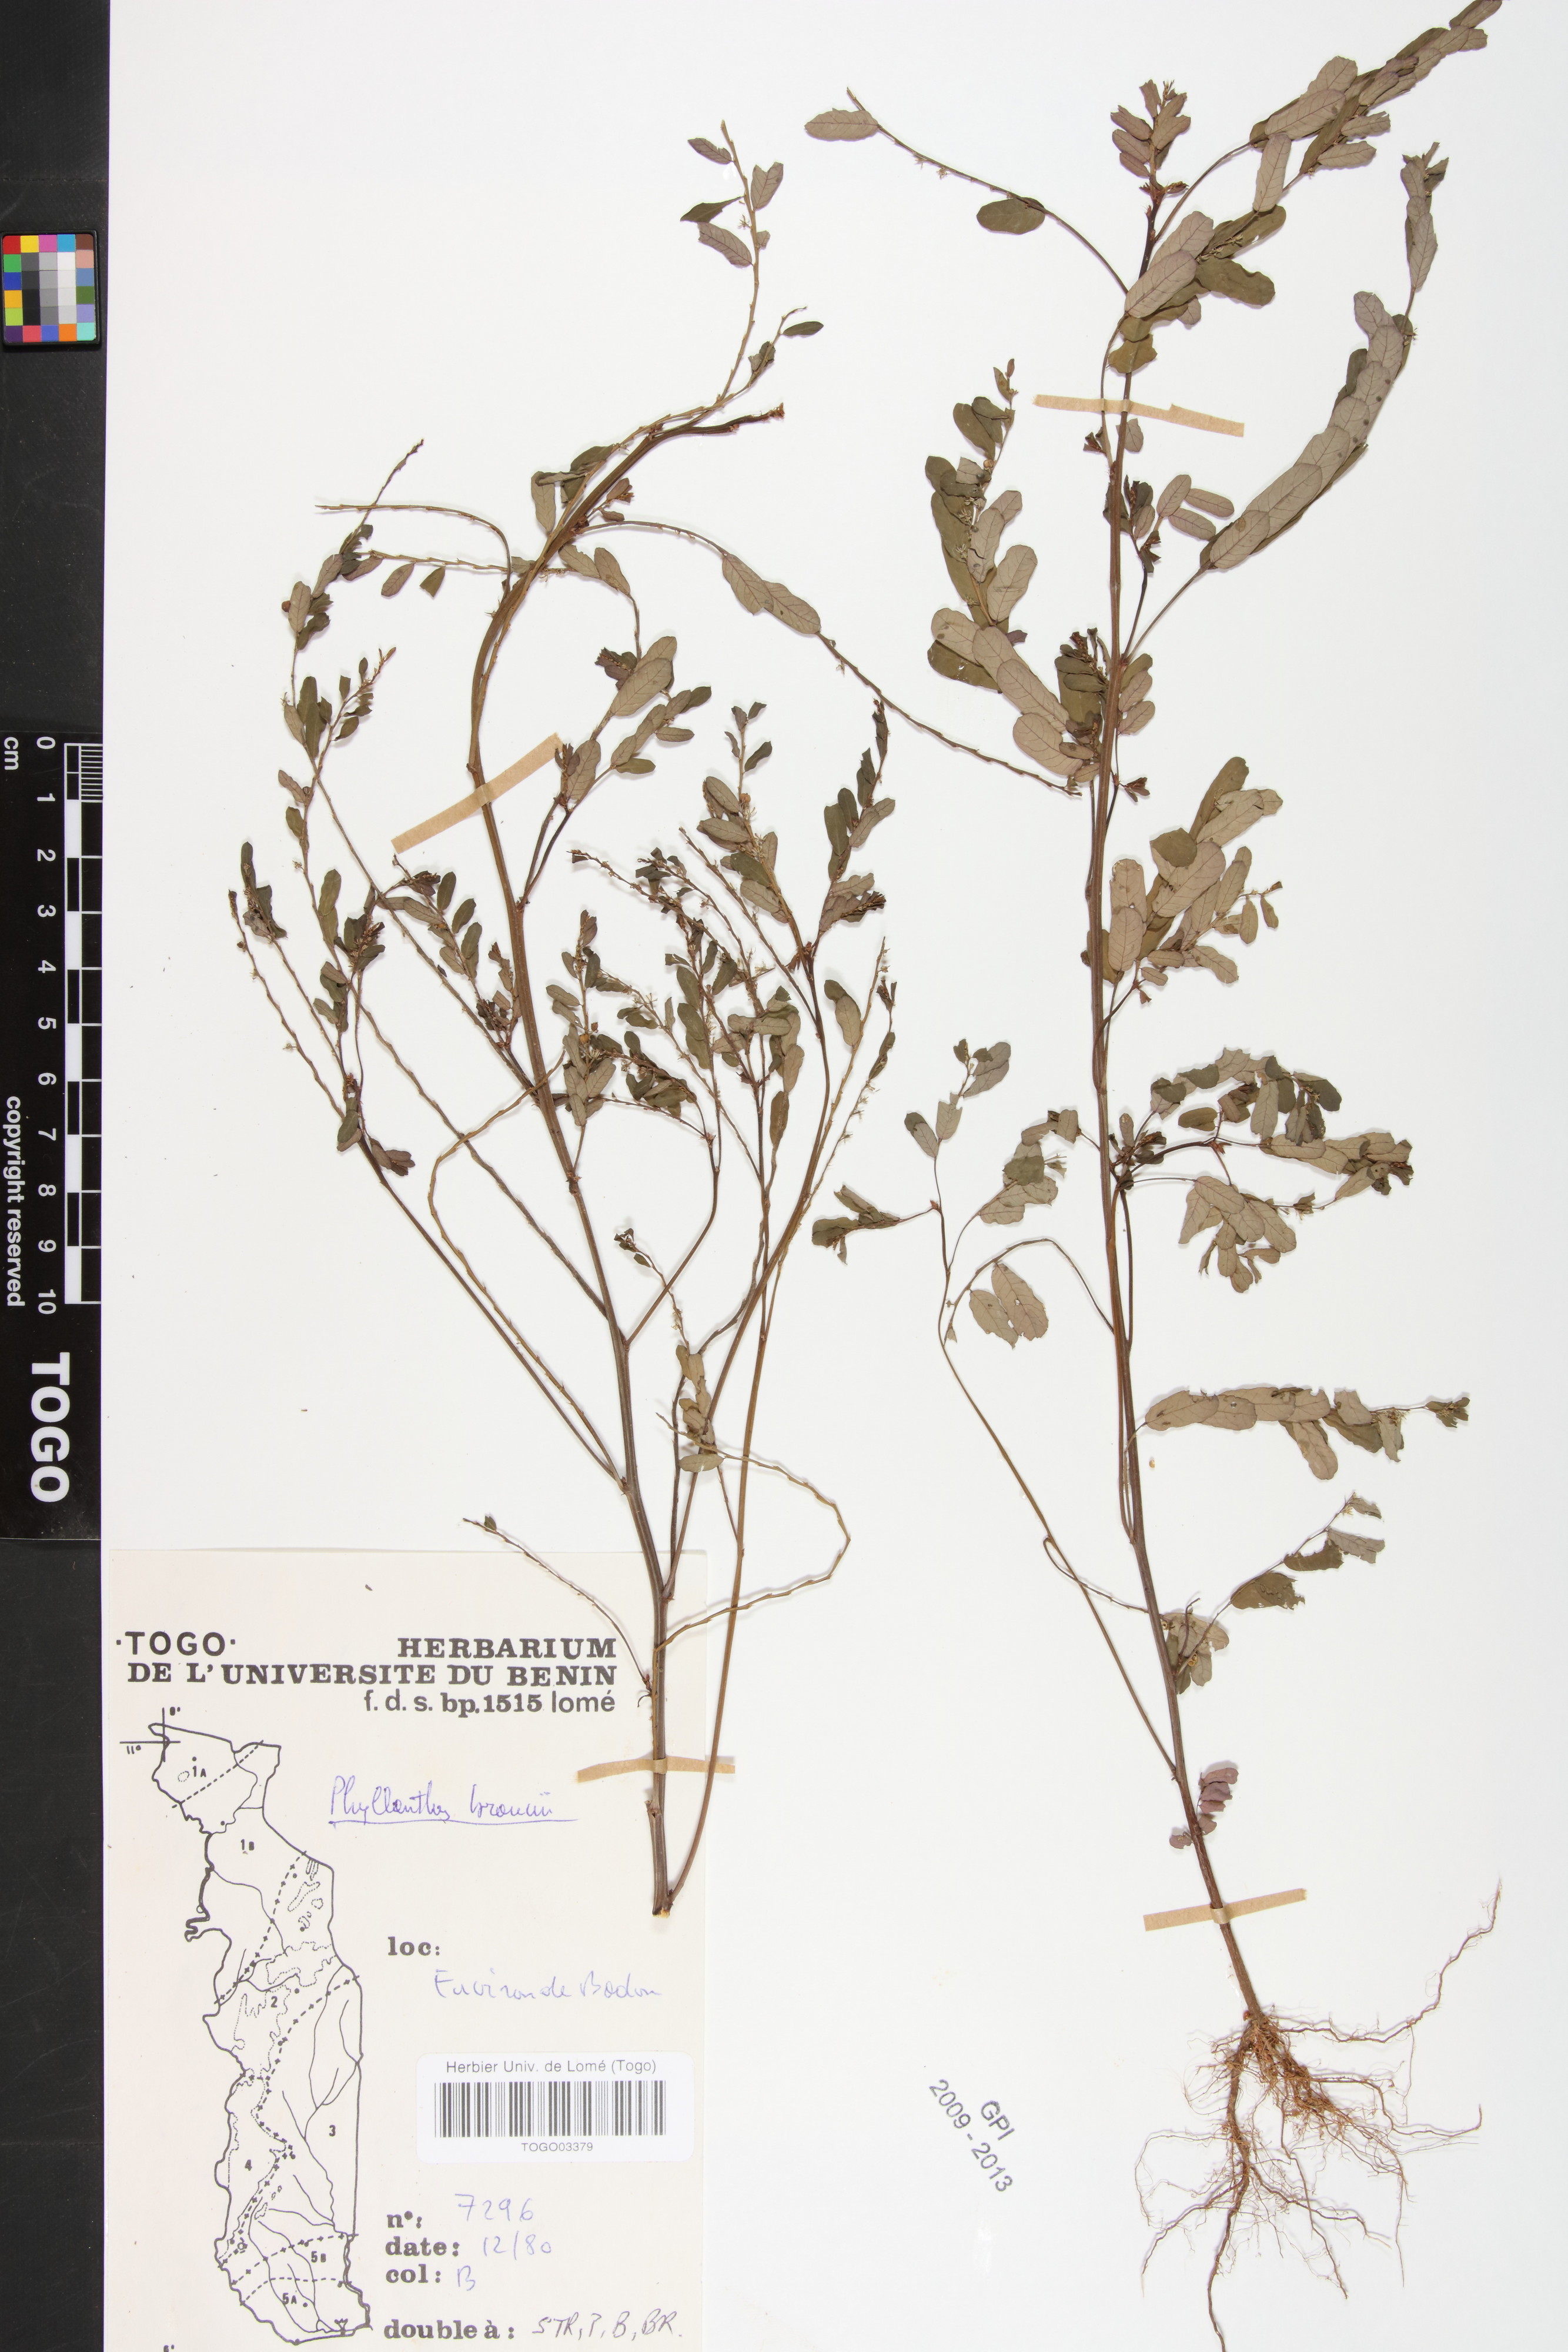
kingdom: Plantae
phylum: Tracheophyta
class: Magnoliopsida
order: Malpighiales
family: Phyllanthaceae
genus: Phyllanthus
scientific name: Phyllanthus odontadenius
